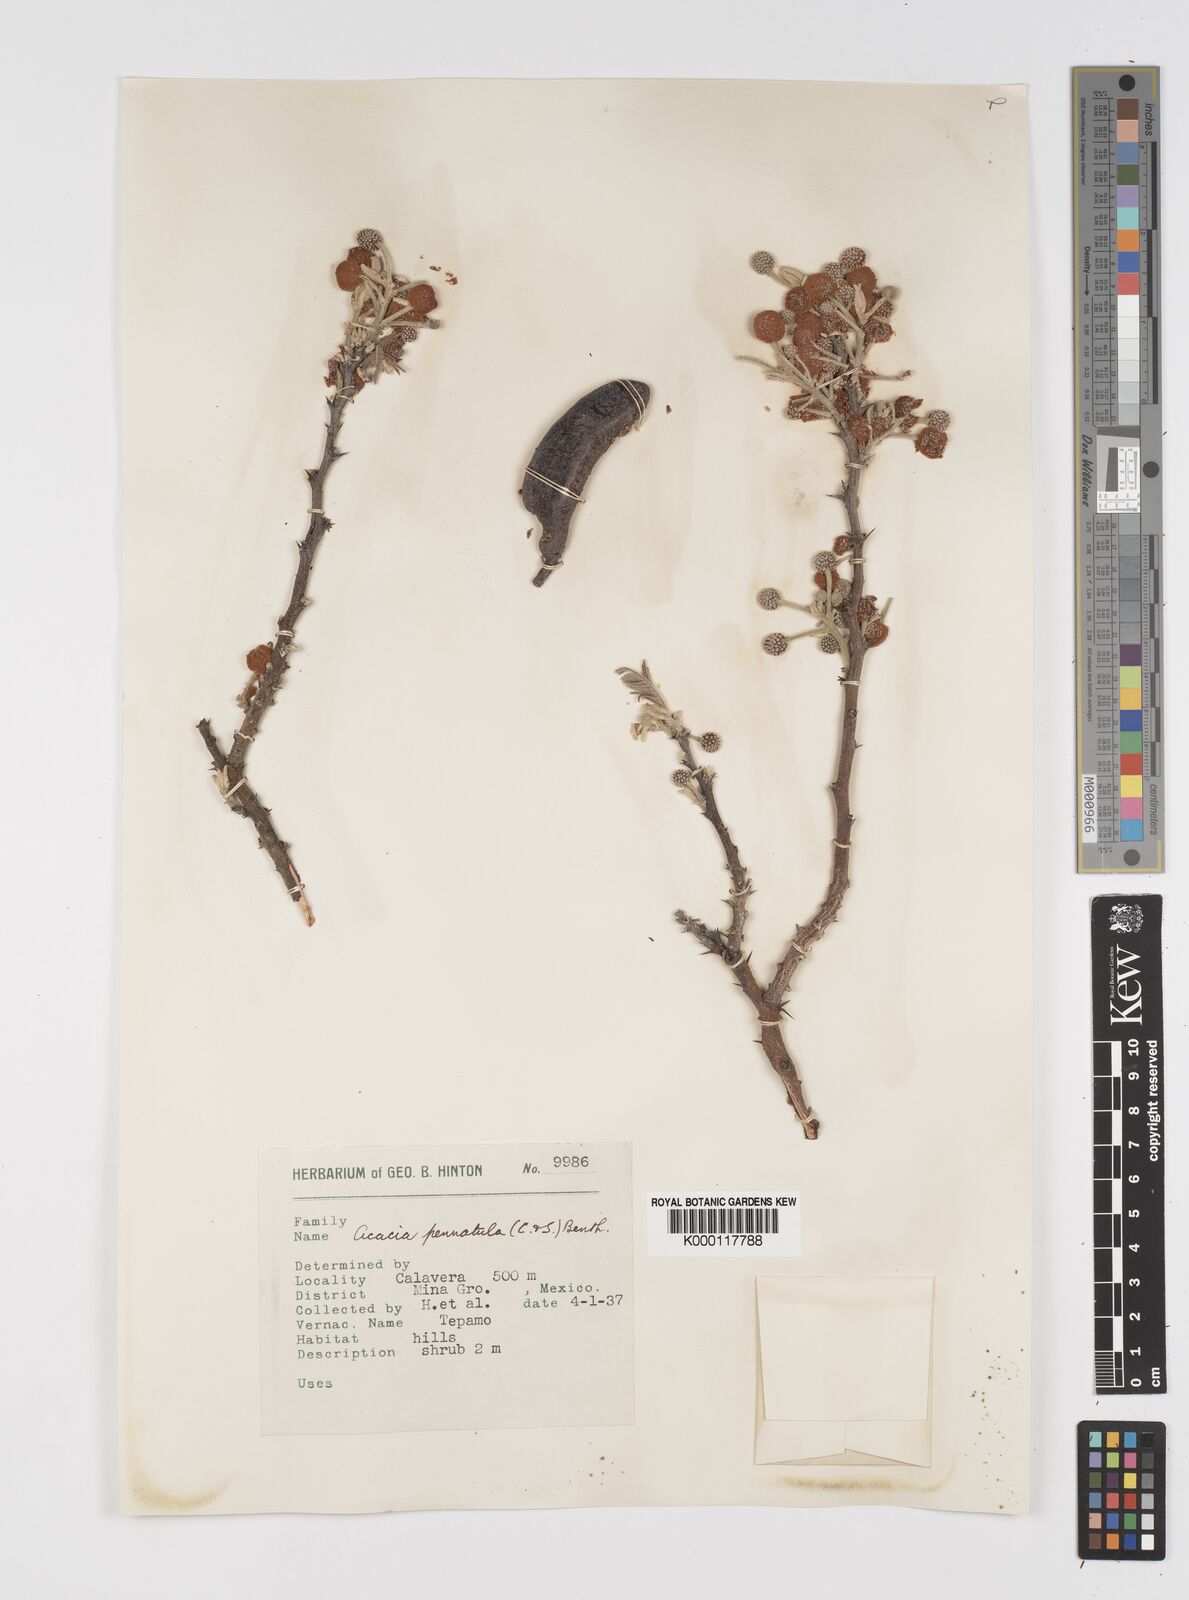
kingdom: Plantae
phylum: Tracheophyta
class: Magnoliopsida
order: Fabales
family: Fabaceae
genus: Vachellia
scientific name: Vachellia pennatula
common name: Fern-leaf acacia
